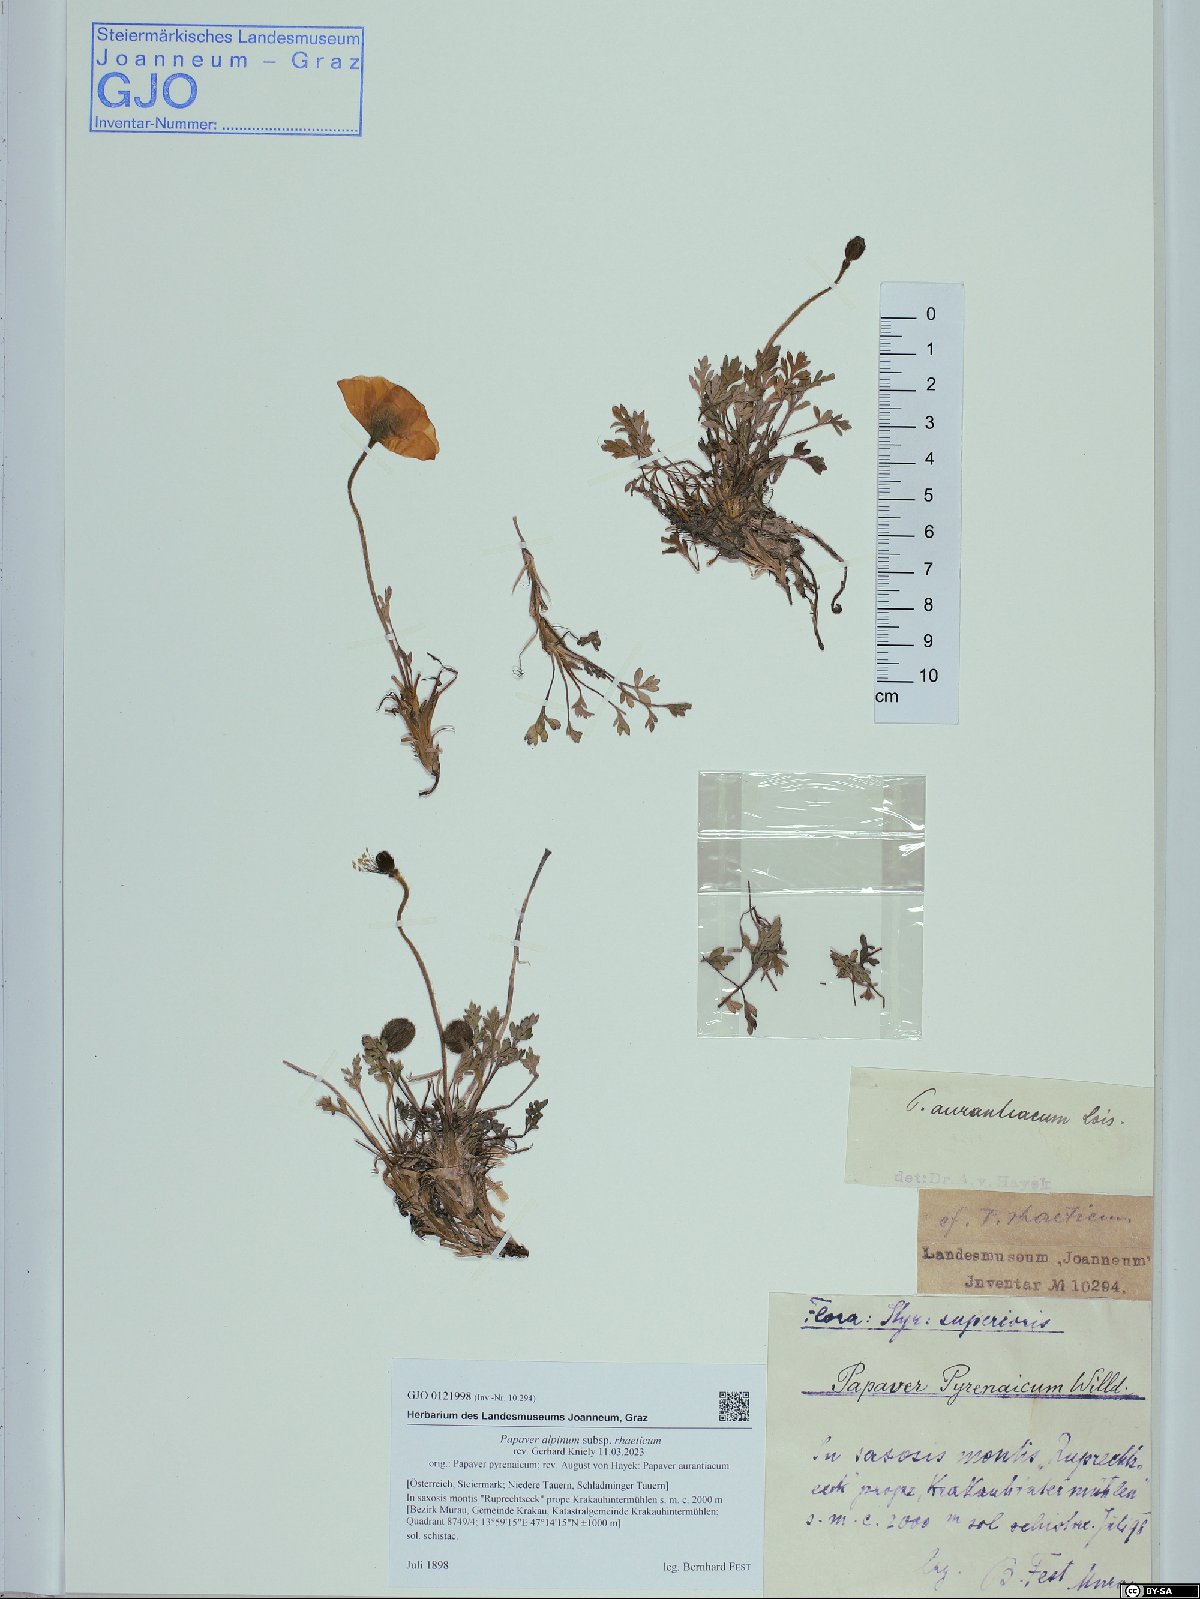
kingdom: Plantae
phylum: Tracheophyta
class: Magnoliopsida
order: Ranunculales
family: Papaveraceae
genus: Papaver
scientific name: Papaver alpinum
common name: Austrian poppy
